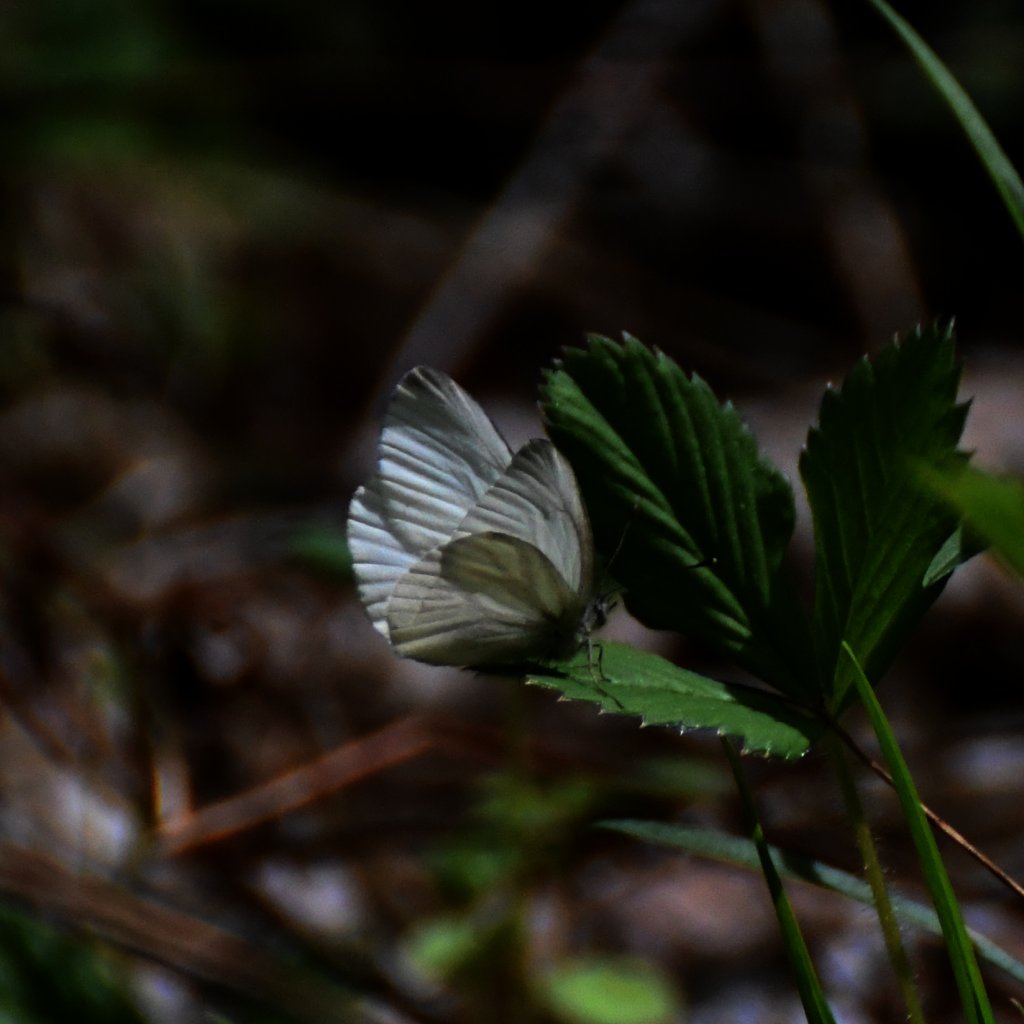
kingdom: Animalia
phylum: Arthropoda
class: Insecta
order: Lepidoptera
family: Pieridae
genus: Pieris
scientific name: Pieris virginiensis
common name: West Virginia White
